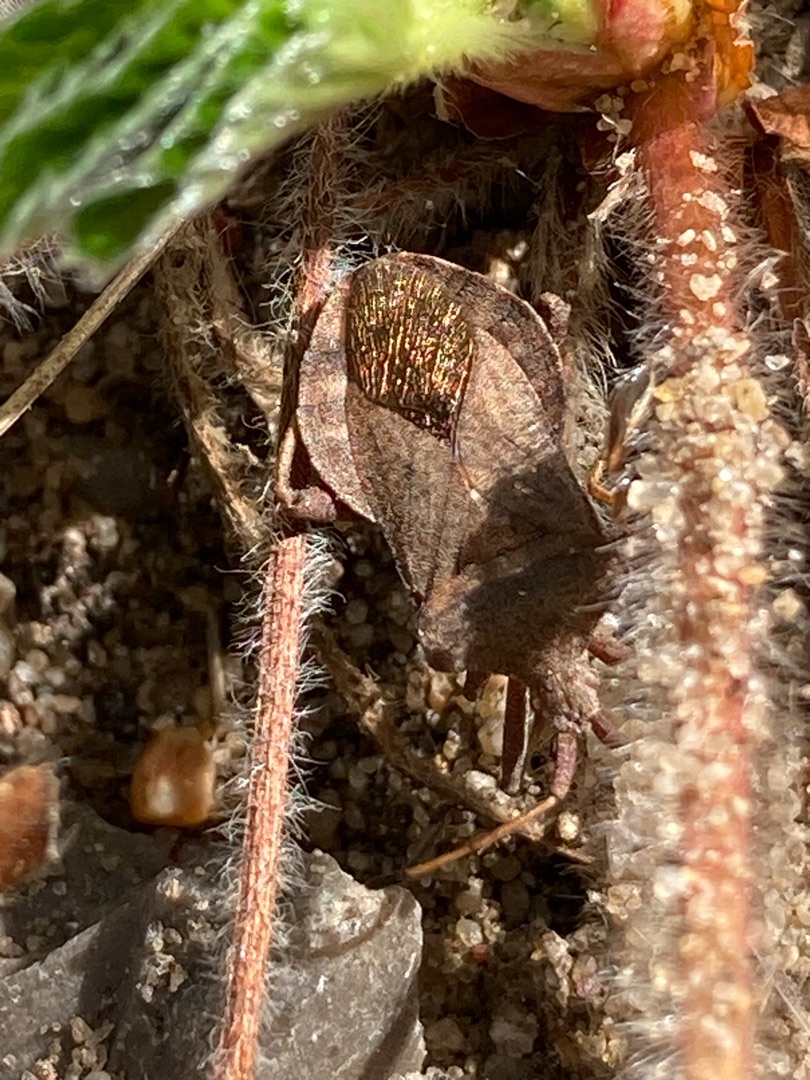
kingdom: Animalia
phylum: Arthropoda
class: Insecta
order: Hemiptera
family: Coreidae
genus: Coreus
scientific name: Coreus marginatus
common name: Skræppetæge
